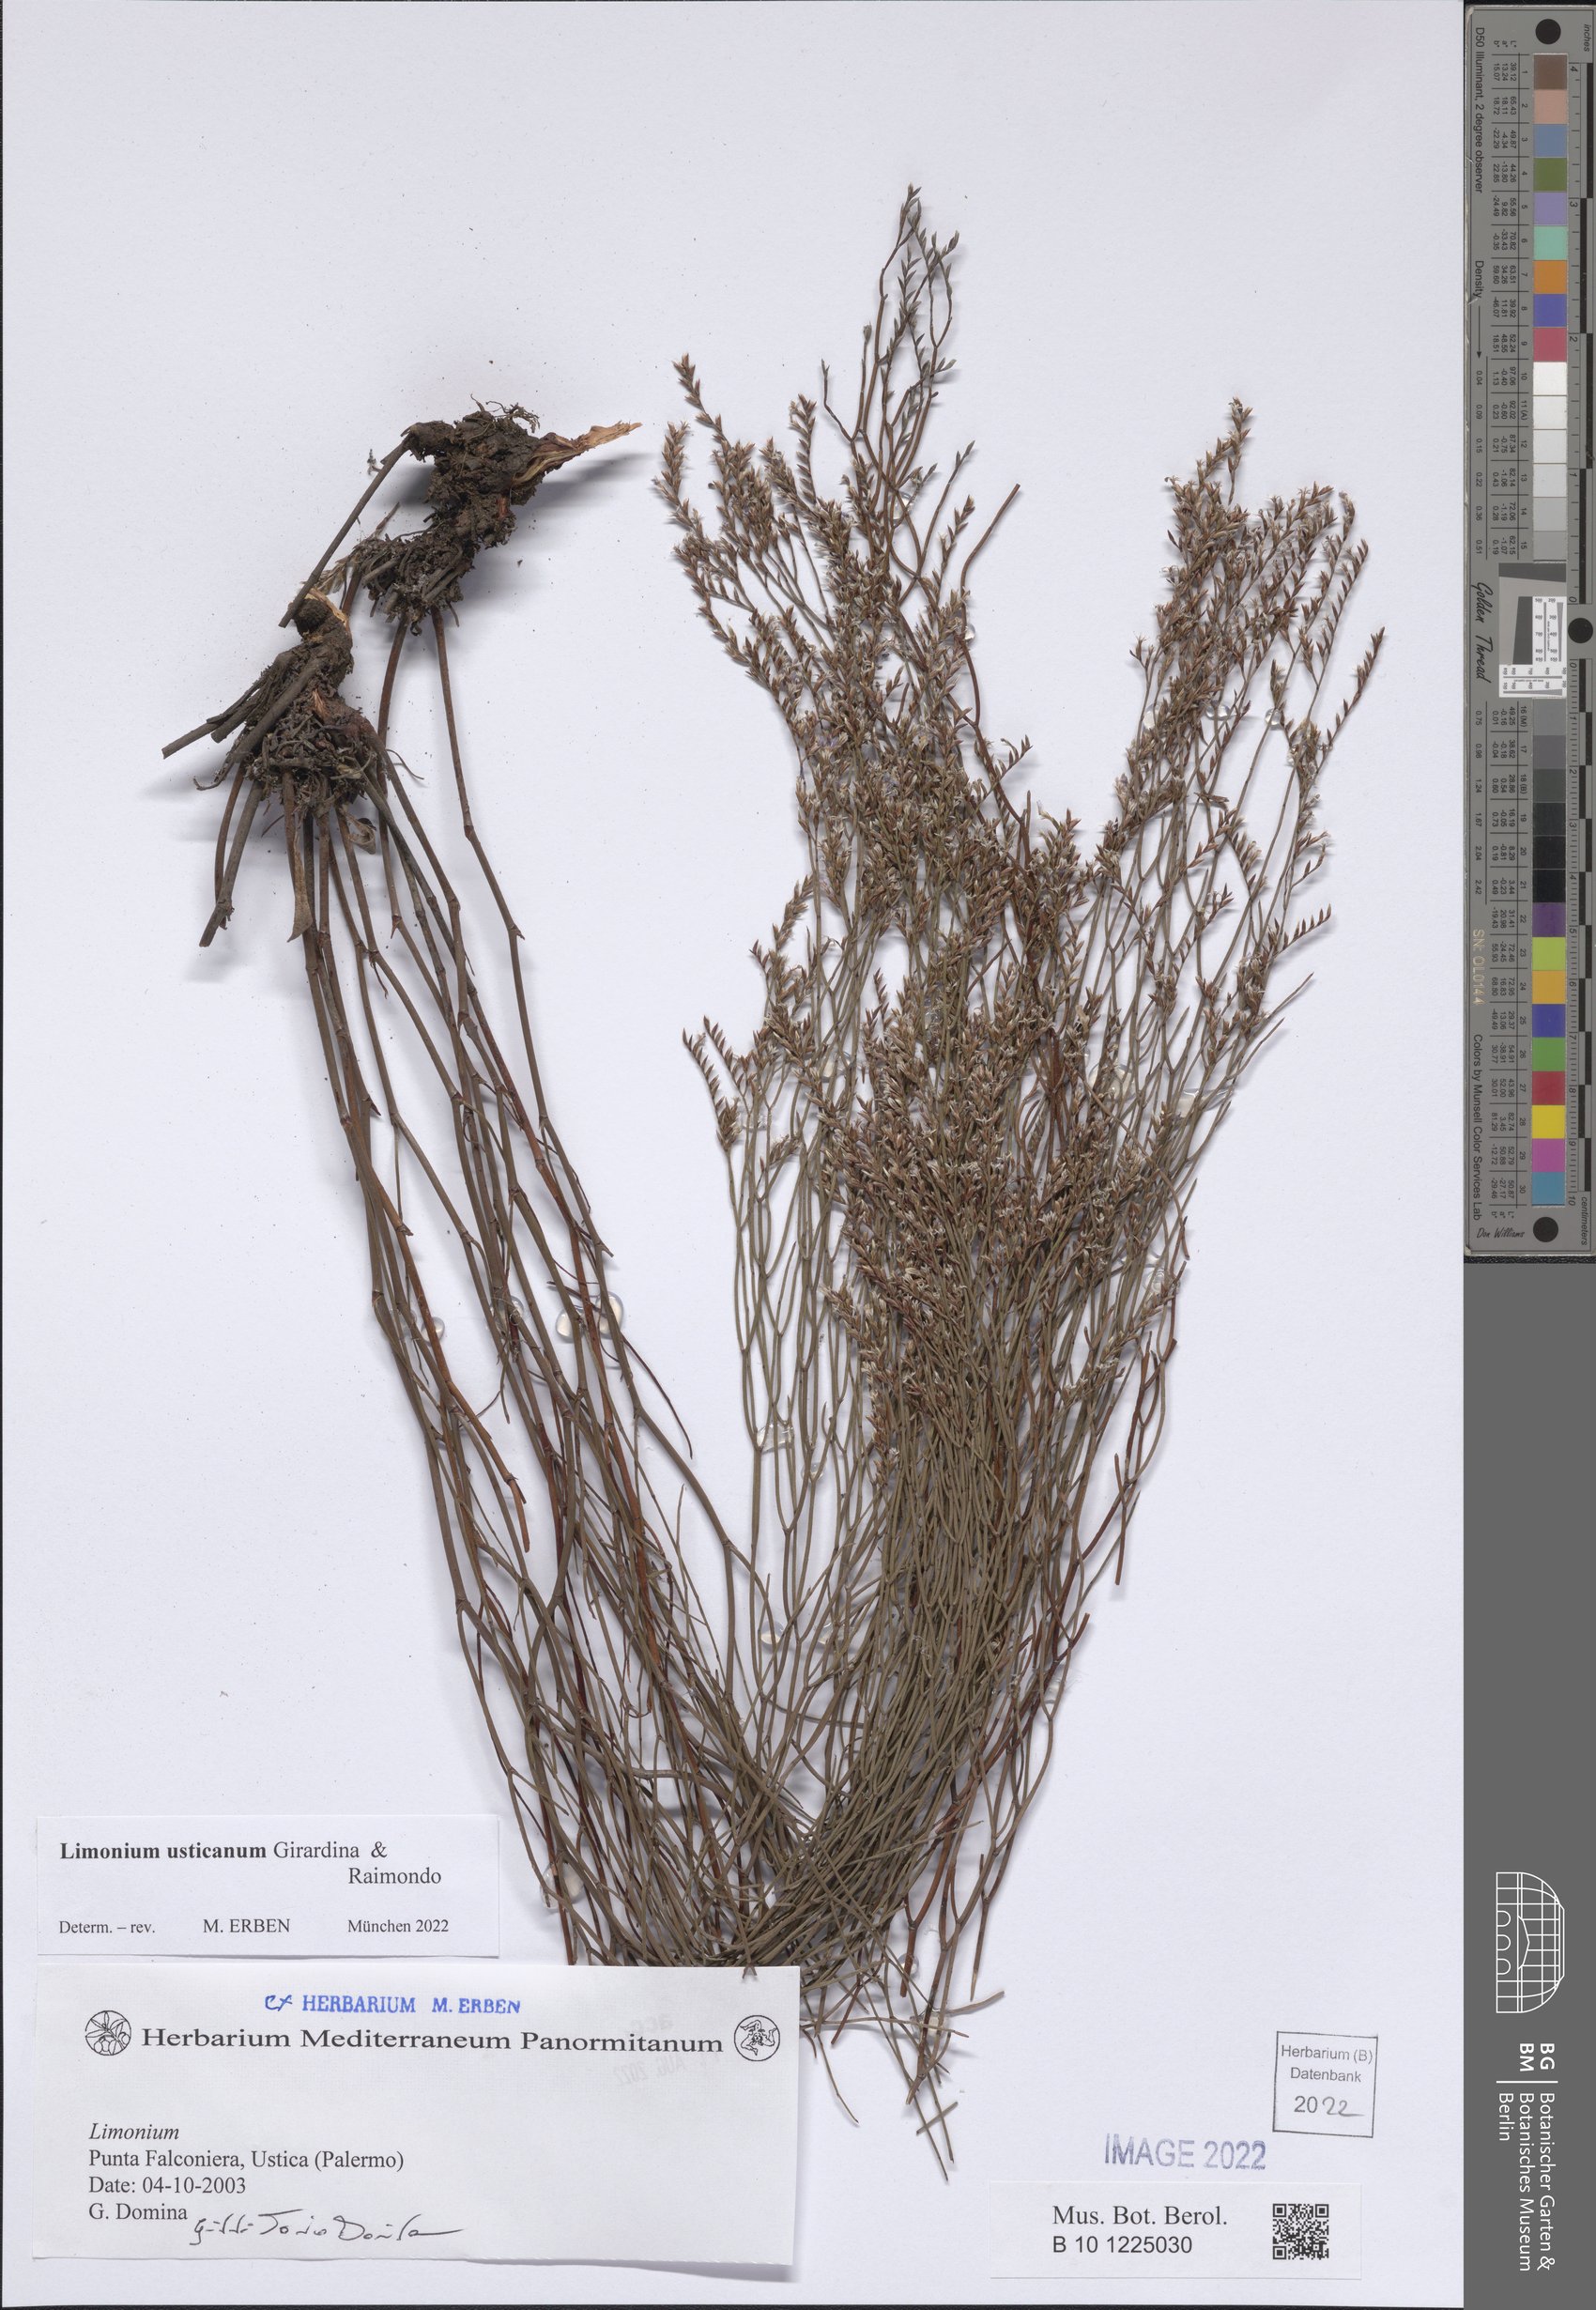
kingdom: Plantae
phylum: Tracheophyta
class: Magnoliopsida
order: Caryophyllales
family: Plumbaginaceae
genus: Limonium
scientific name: Limonium usticanum
